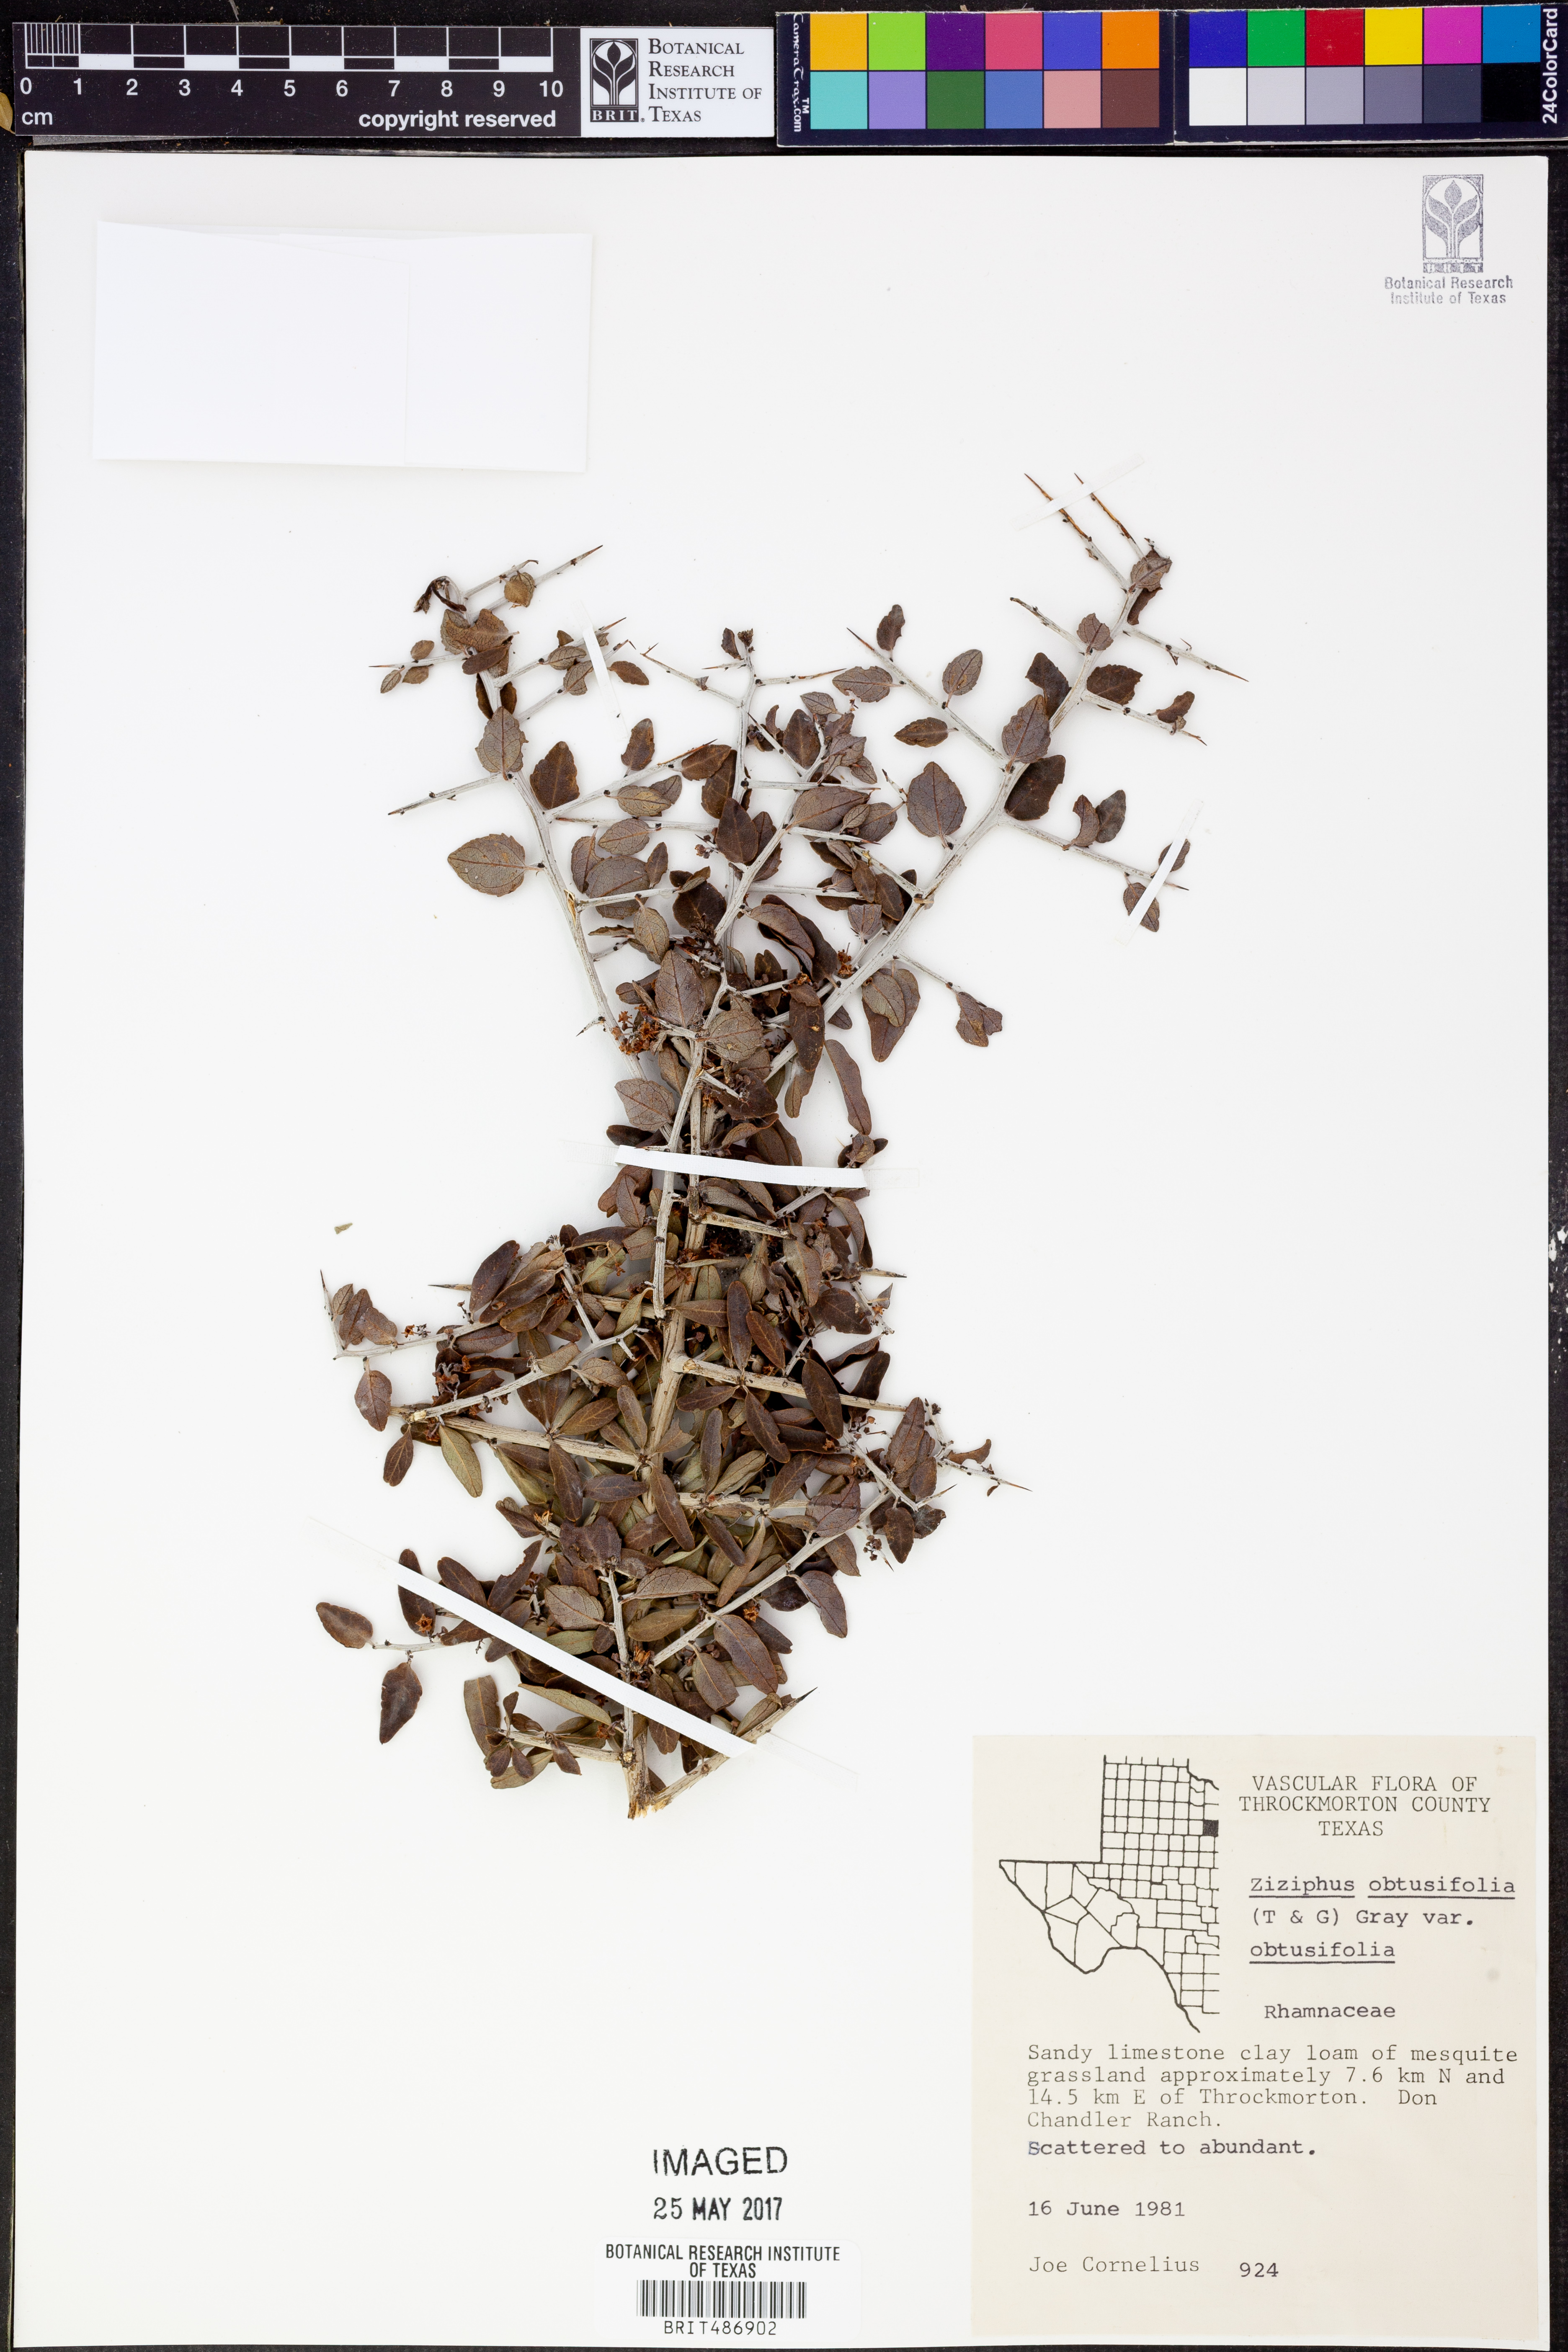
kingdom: Plantae
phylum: Tracheophyta
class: Magnoliopsida
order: Rosales
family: Rhamnaceae
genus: Sarcomphalus
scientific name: Sarcomphalus obtusifolius
